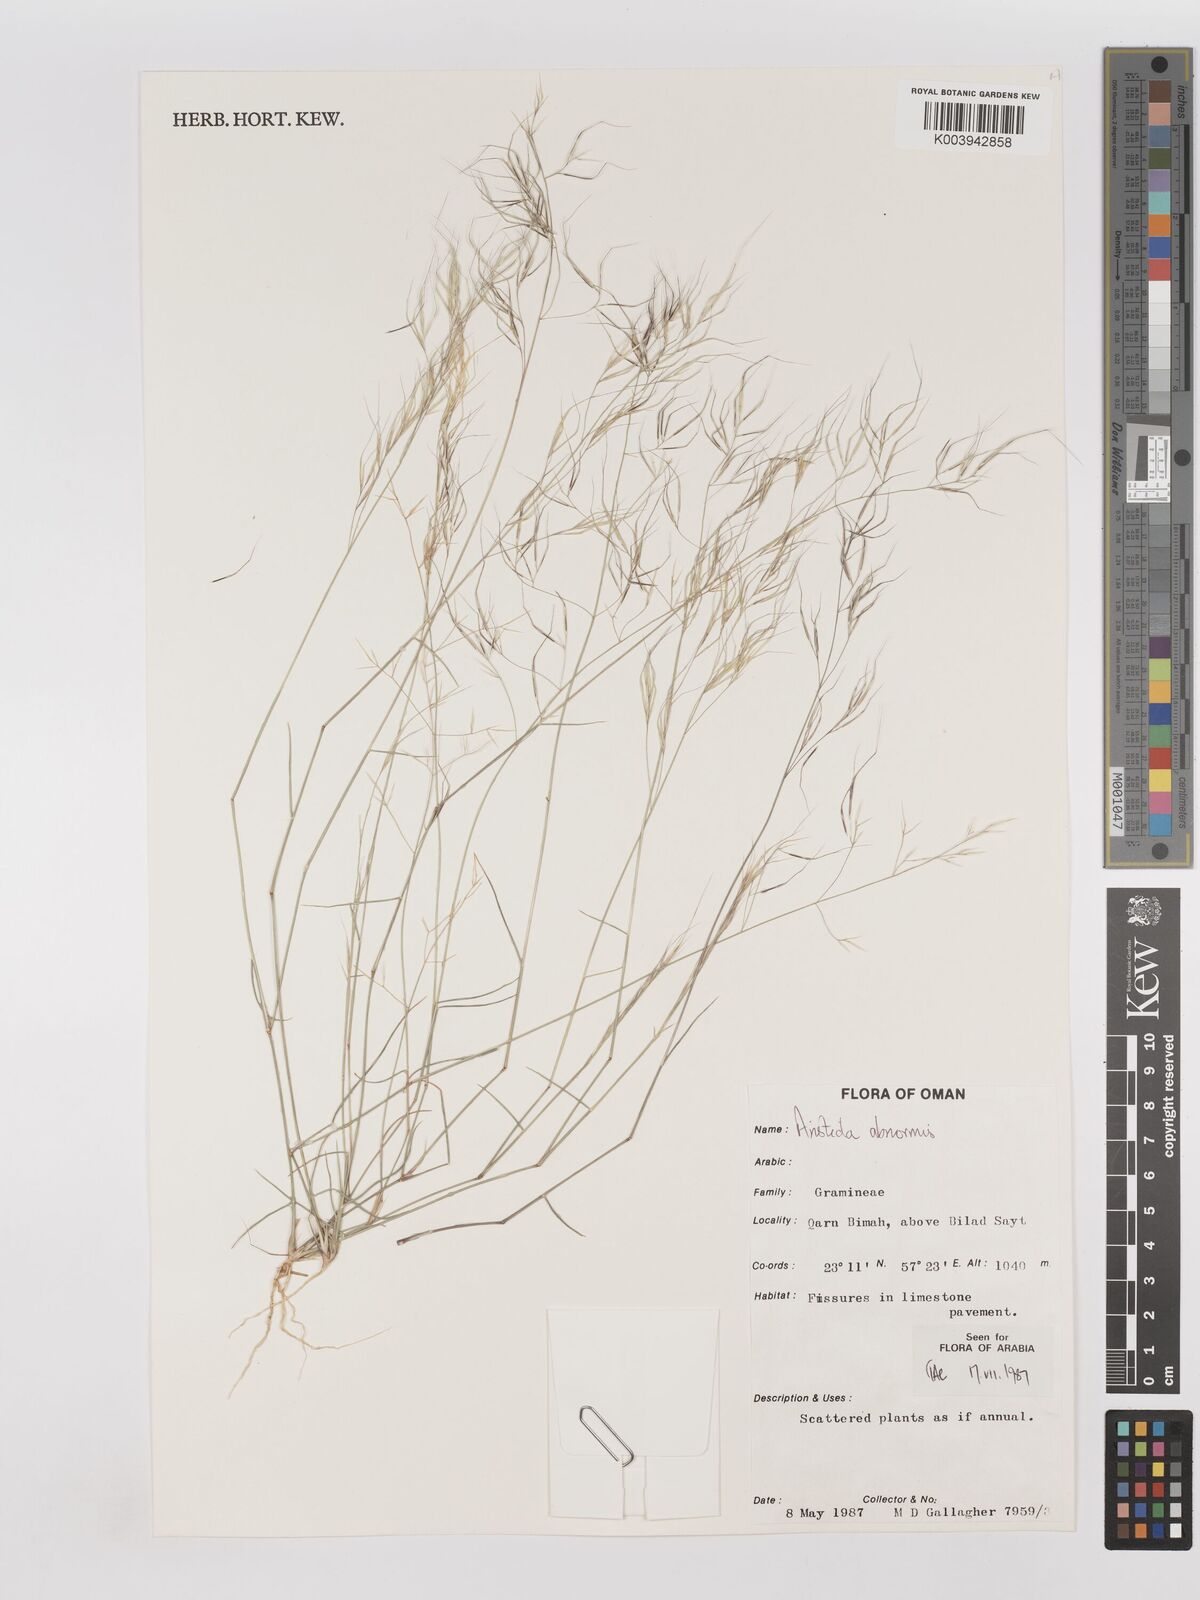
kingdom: Plantae
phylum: Tracheophyta
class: Liliopsida
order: Poales
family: Poaceae
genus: Aristida
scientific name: Aristida abnormis
